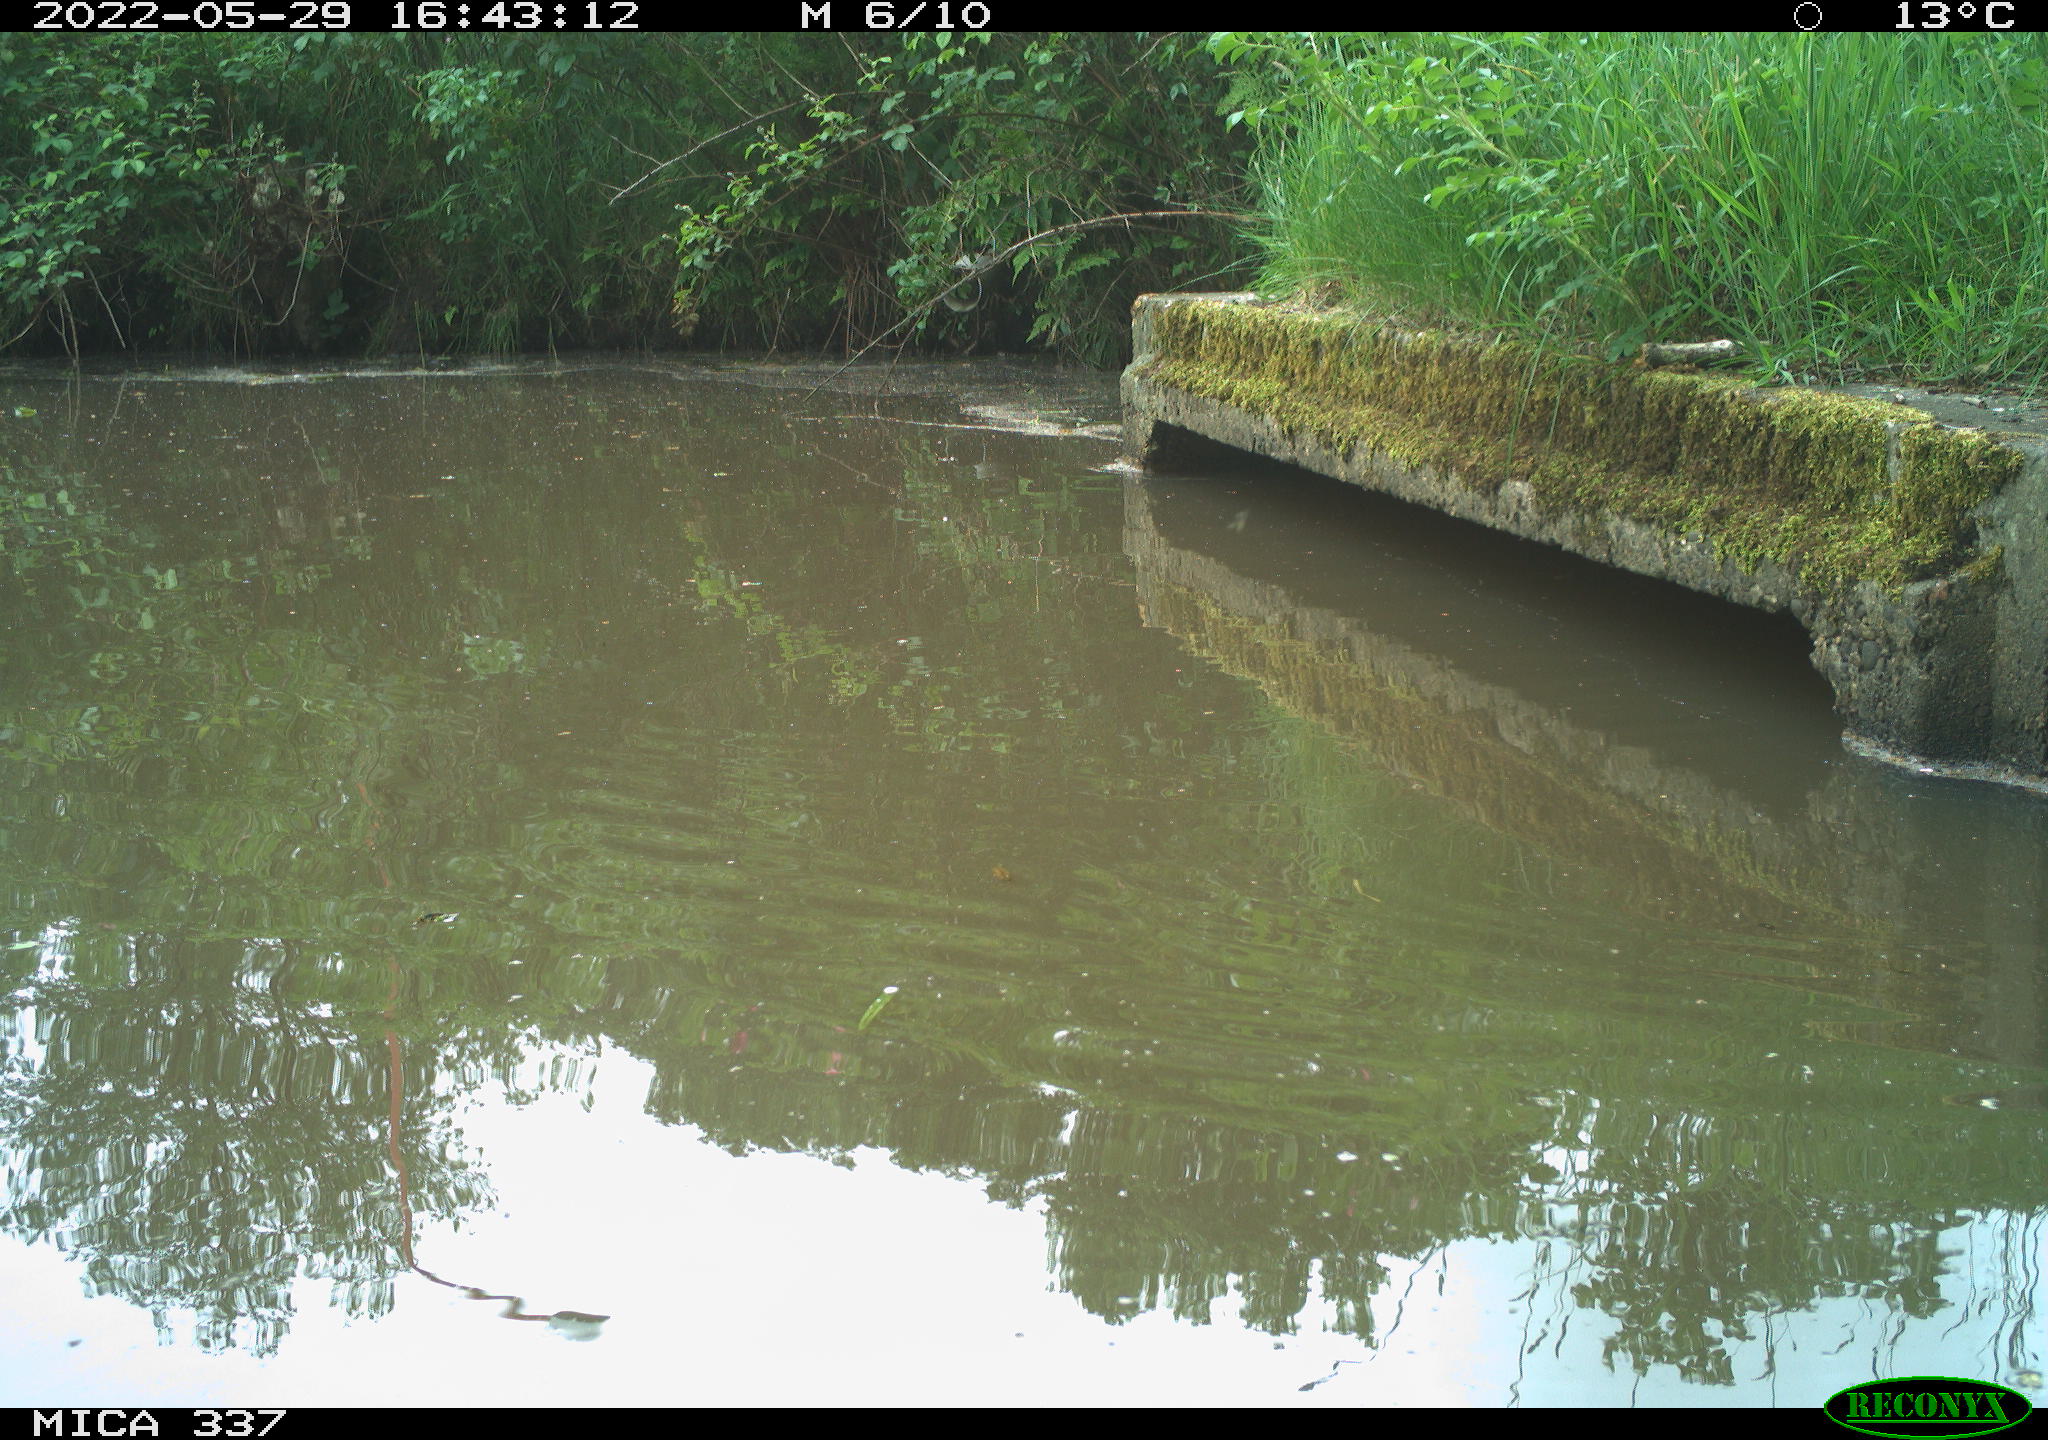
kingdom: Animalia
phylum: Chordata
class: Aves
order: Gruiformes
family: Rallidae
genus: Gallinula
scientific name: Gallinula chloropus
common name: Common moorhen
